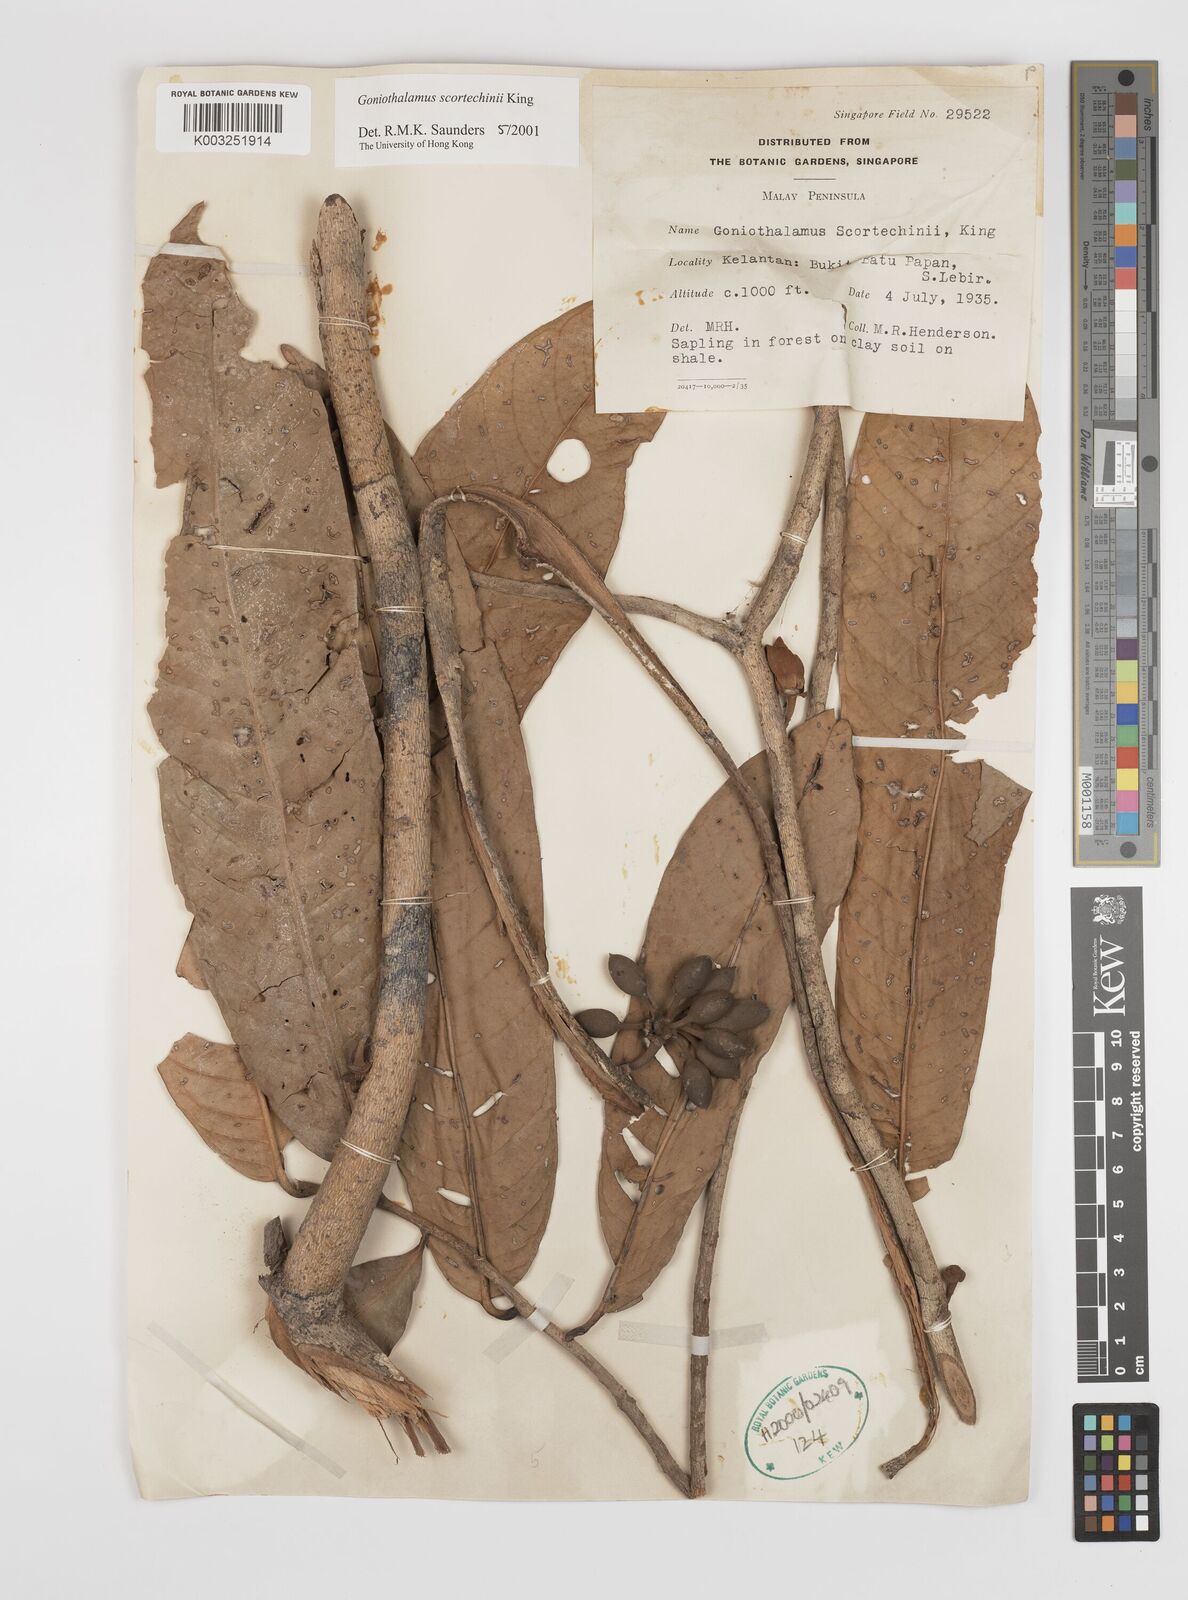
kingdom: Plantae
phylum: Tracheophyta
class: Magnoliopsida
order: Magnoliales
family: Annonaceae
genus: Goniothalamus
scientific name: Goniothalamus scortechinii
